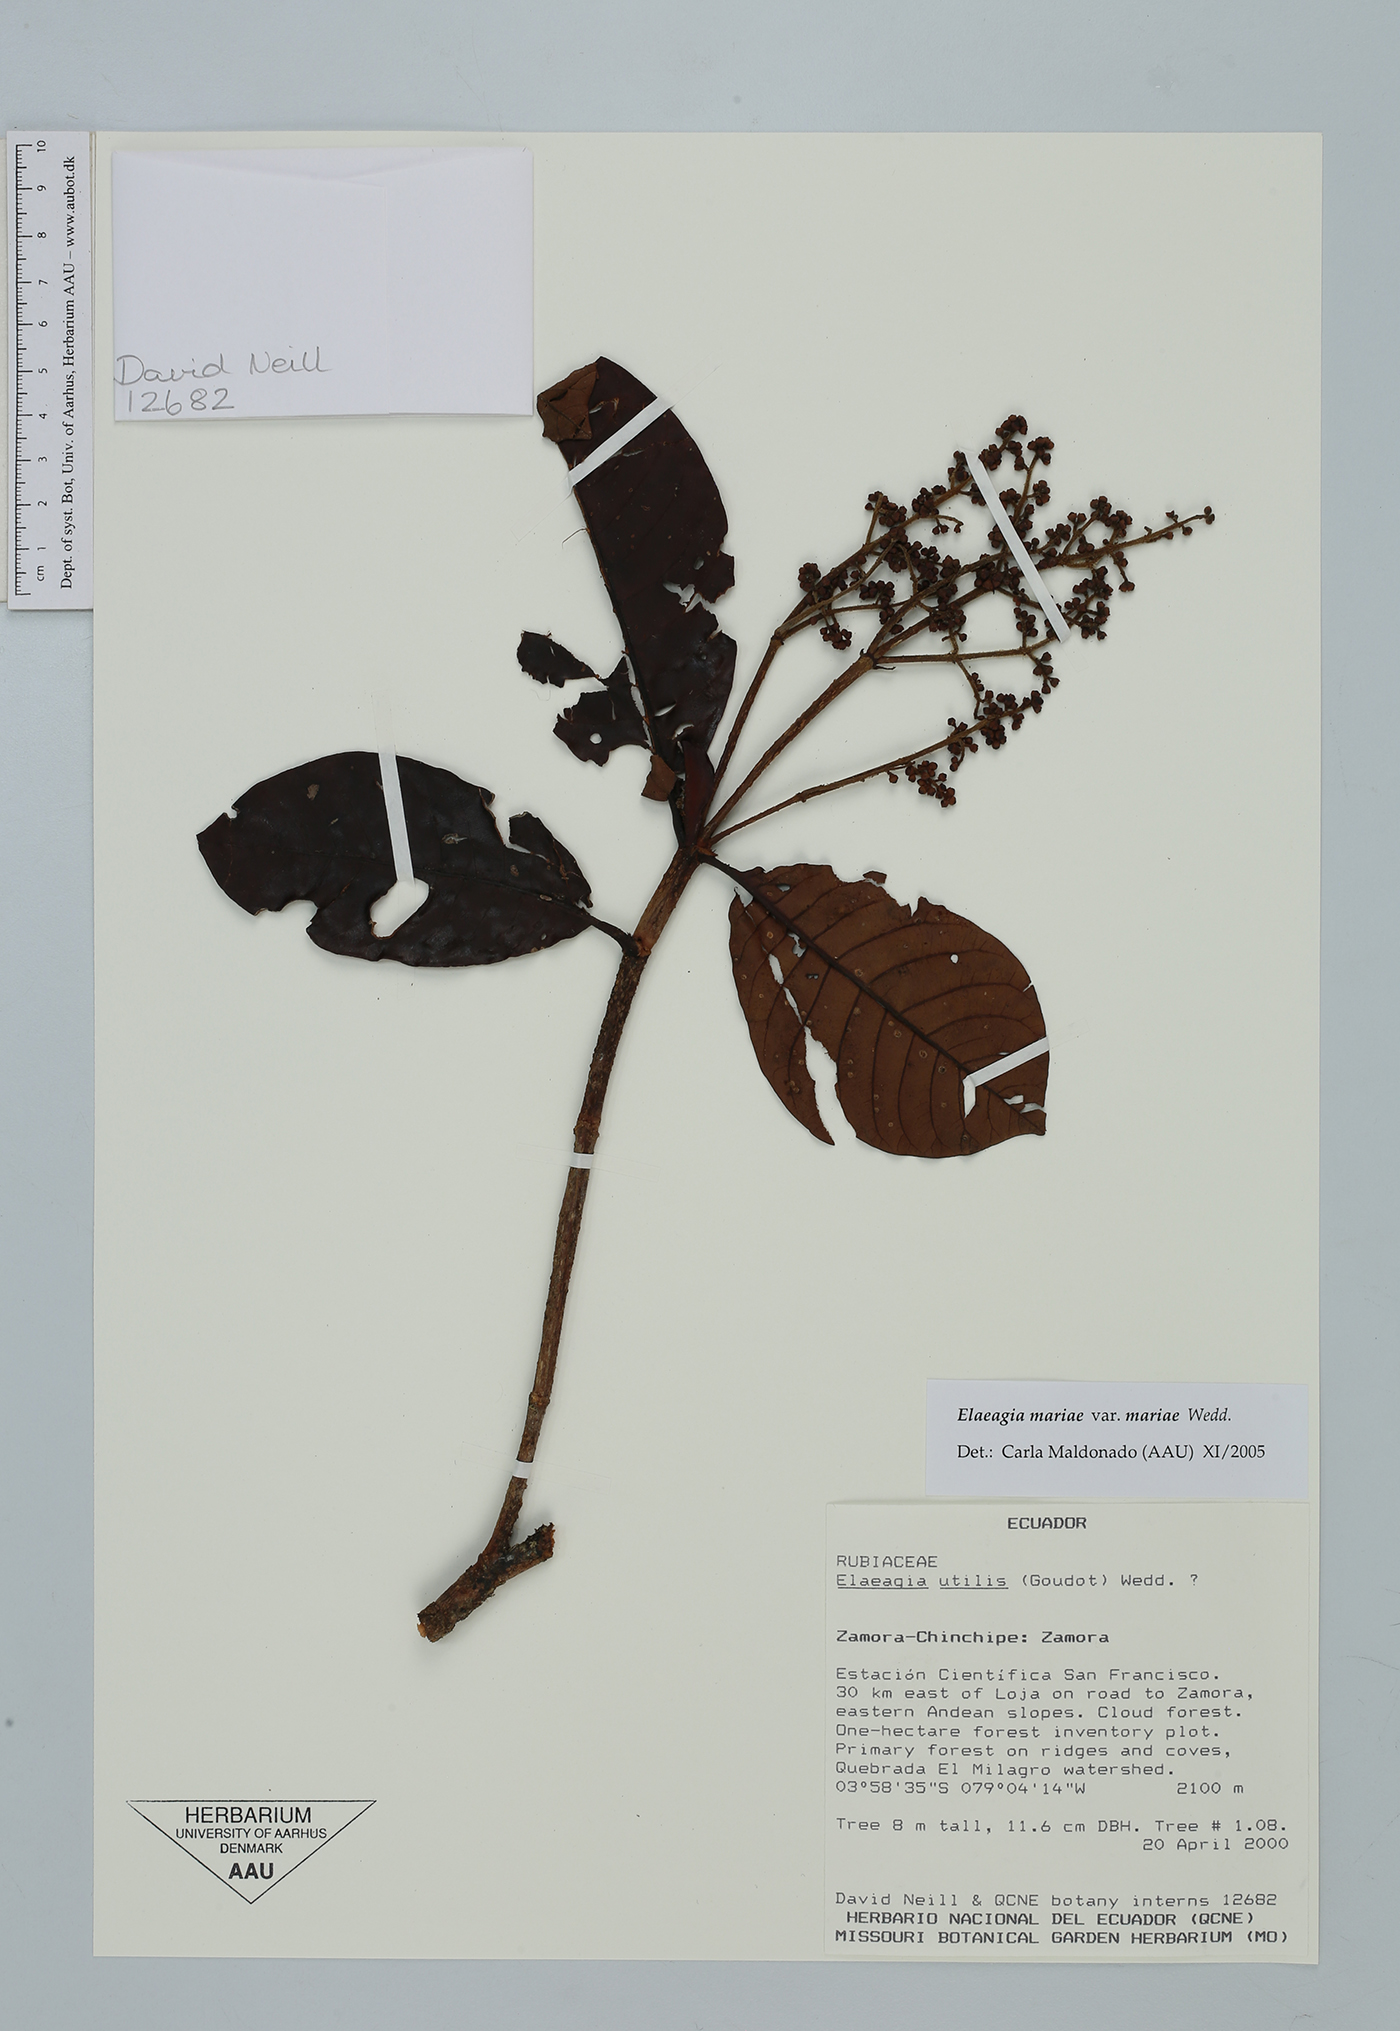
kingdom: Plantae
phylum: Tracheophyta
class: Magnoliopsida
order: Gentianales
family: Rubiaceae
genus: Elaeagia
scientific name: Elaeagia mariae
